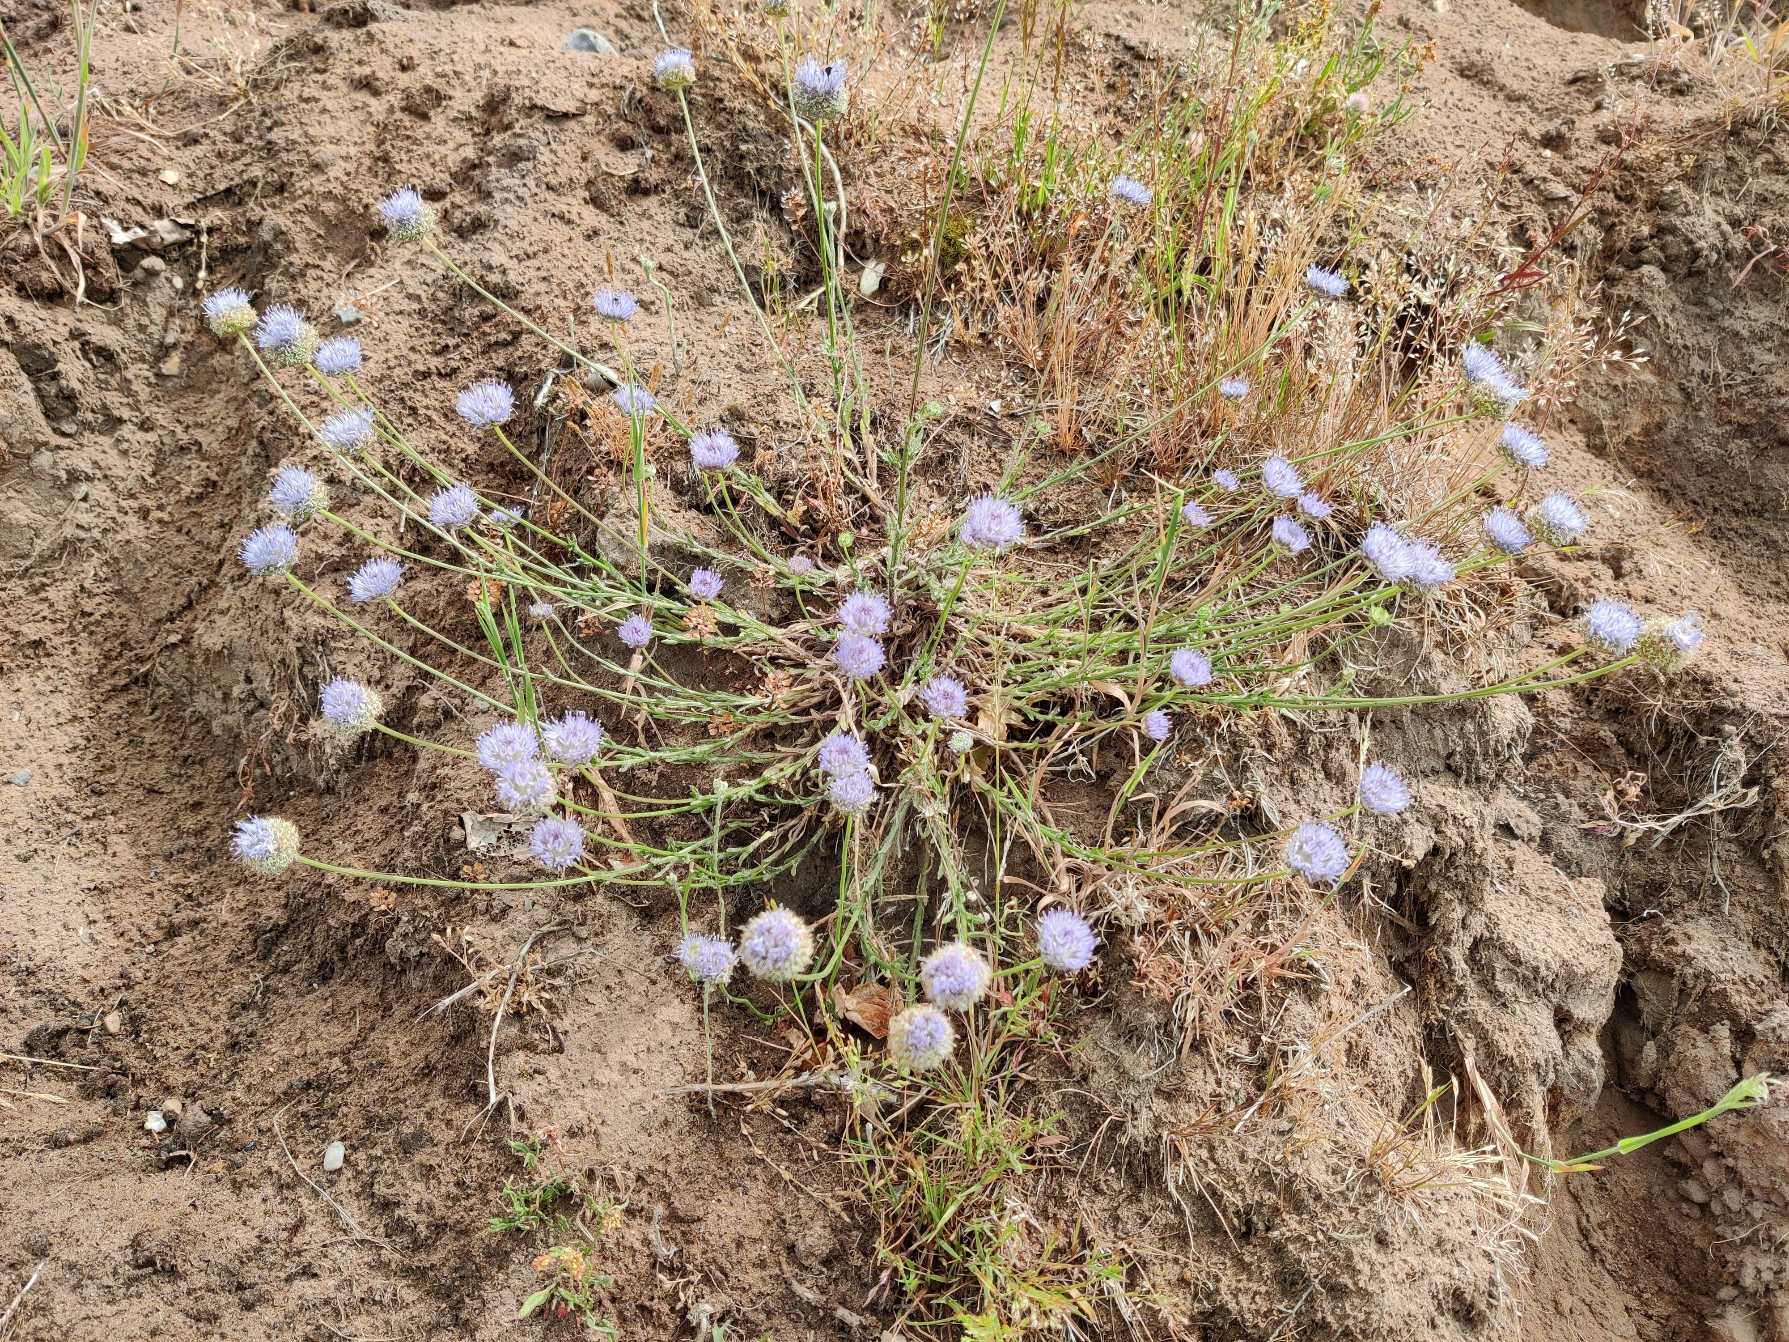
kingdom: Plantae
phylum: Tracheophyta
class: Magnoliopsida
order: Asterales
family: Campanulaceae
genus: Jasione
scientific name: Jasione montana
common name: Blåmunke
